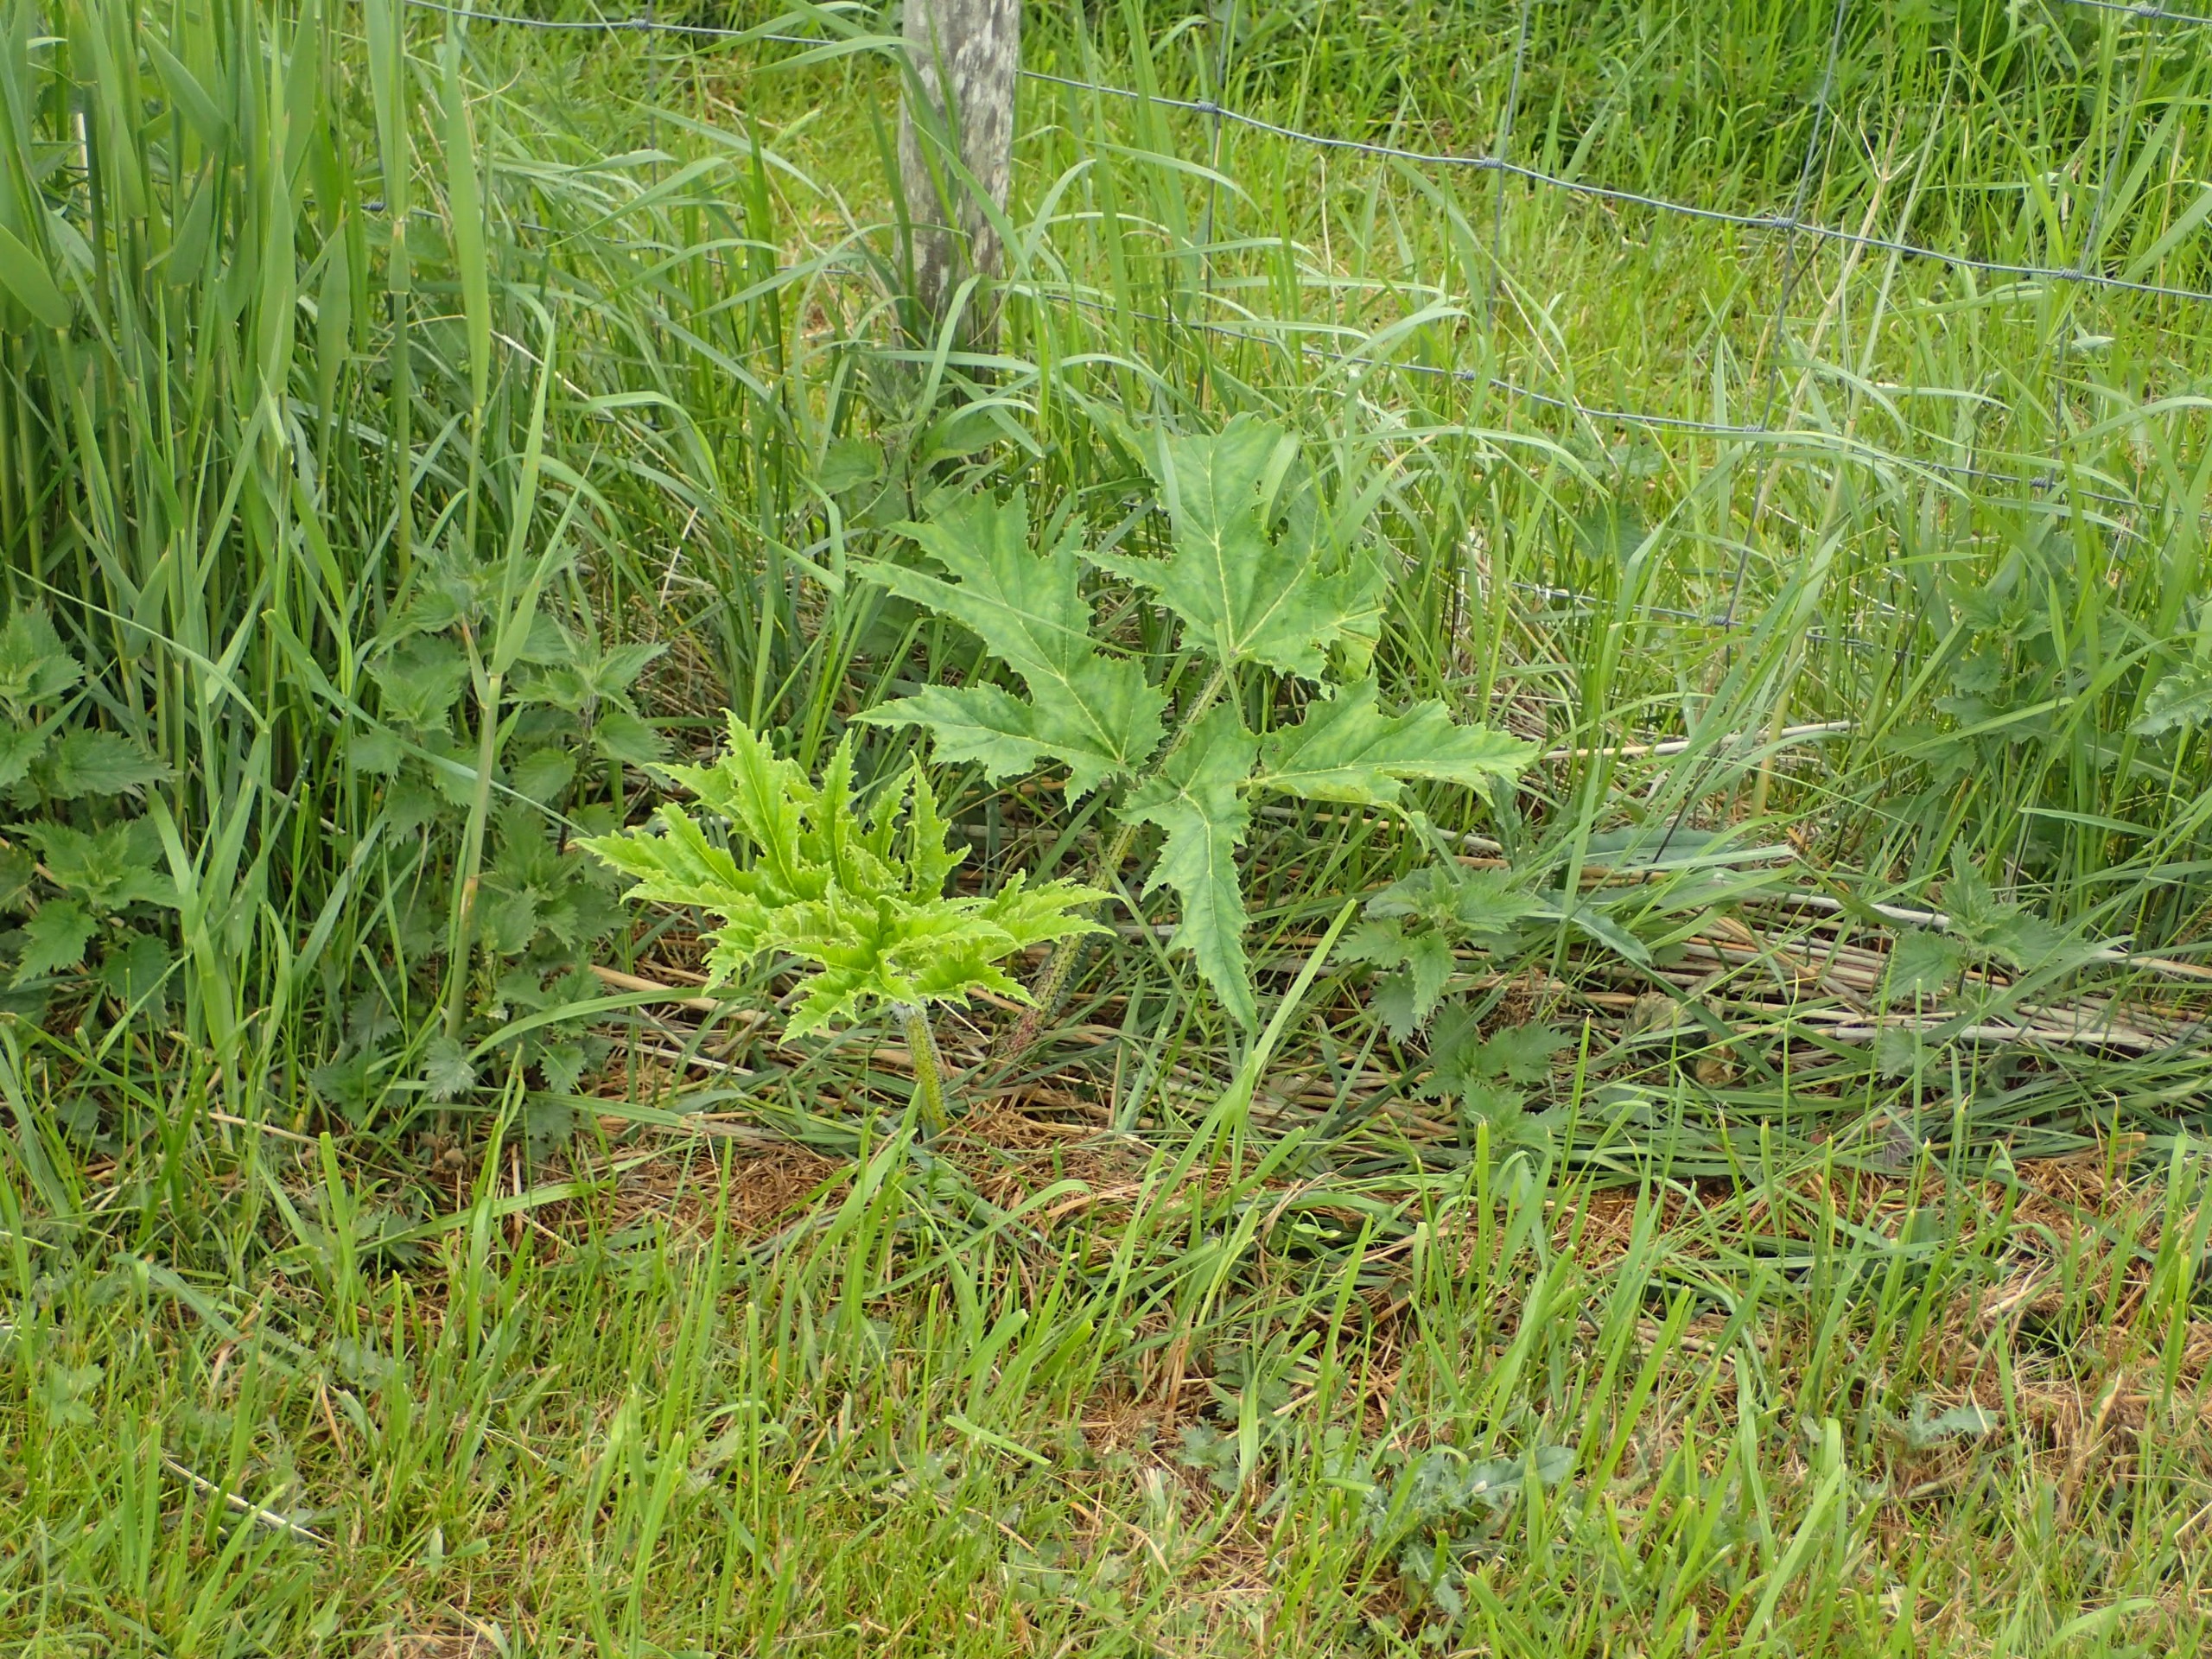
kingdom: Plantae
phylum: Tracheophyta
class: Magnoliopsida
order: Apiales
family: Apiaceae
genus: Heracleum
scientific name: Heracleum mantegazzianum
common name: Kæmpe-bjørneklo
